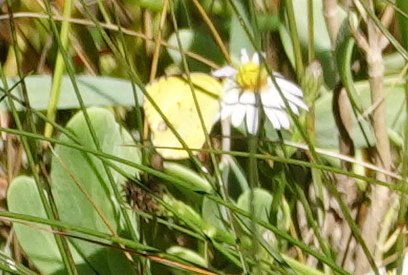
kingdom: Animalia
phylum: Arthropoda
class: Insecta
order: Lepidoptera
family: Pieridae
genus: Pyrisitia
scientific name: Pyrisitia lisa
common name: Little Yellow
